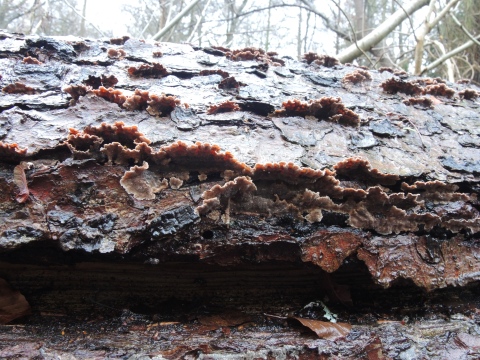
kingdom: Fungi
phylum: Basidiomycota
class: Agaricomycetes
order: Russulales
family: Stereaceae
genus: Stereum
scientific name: Stereum sanguinolentum
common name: blødende lædersvamp
